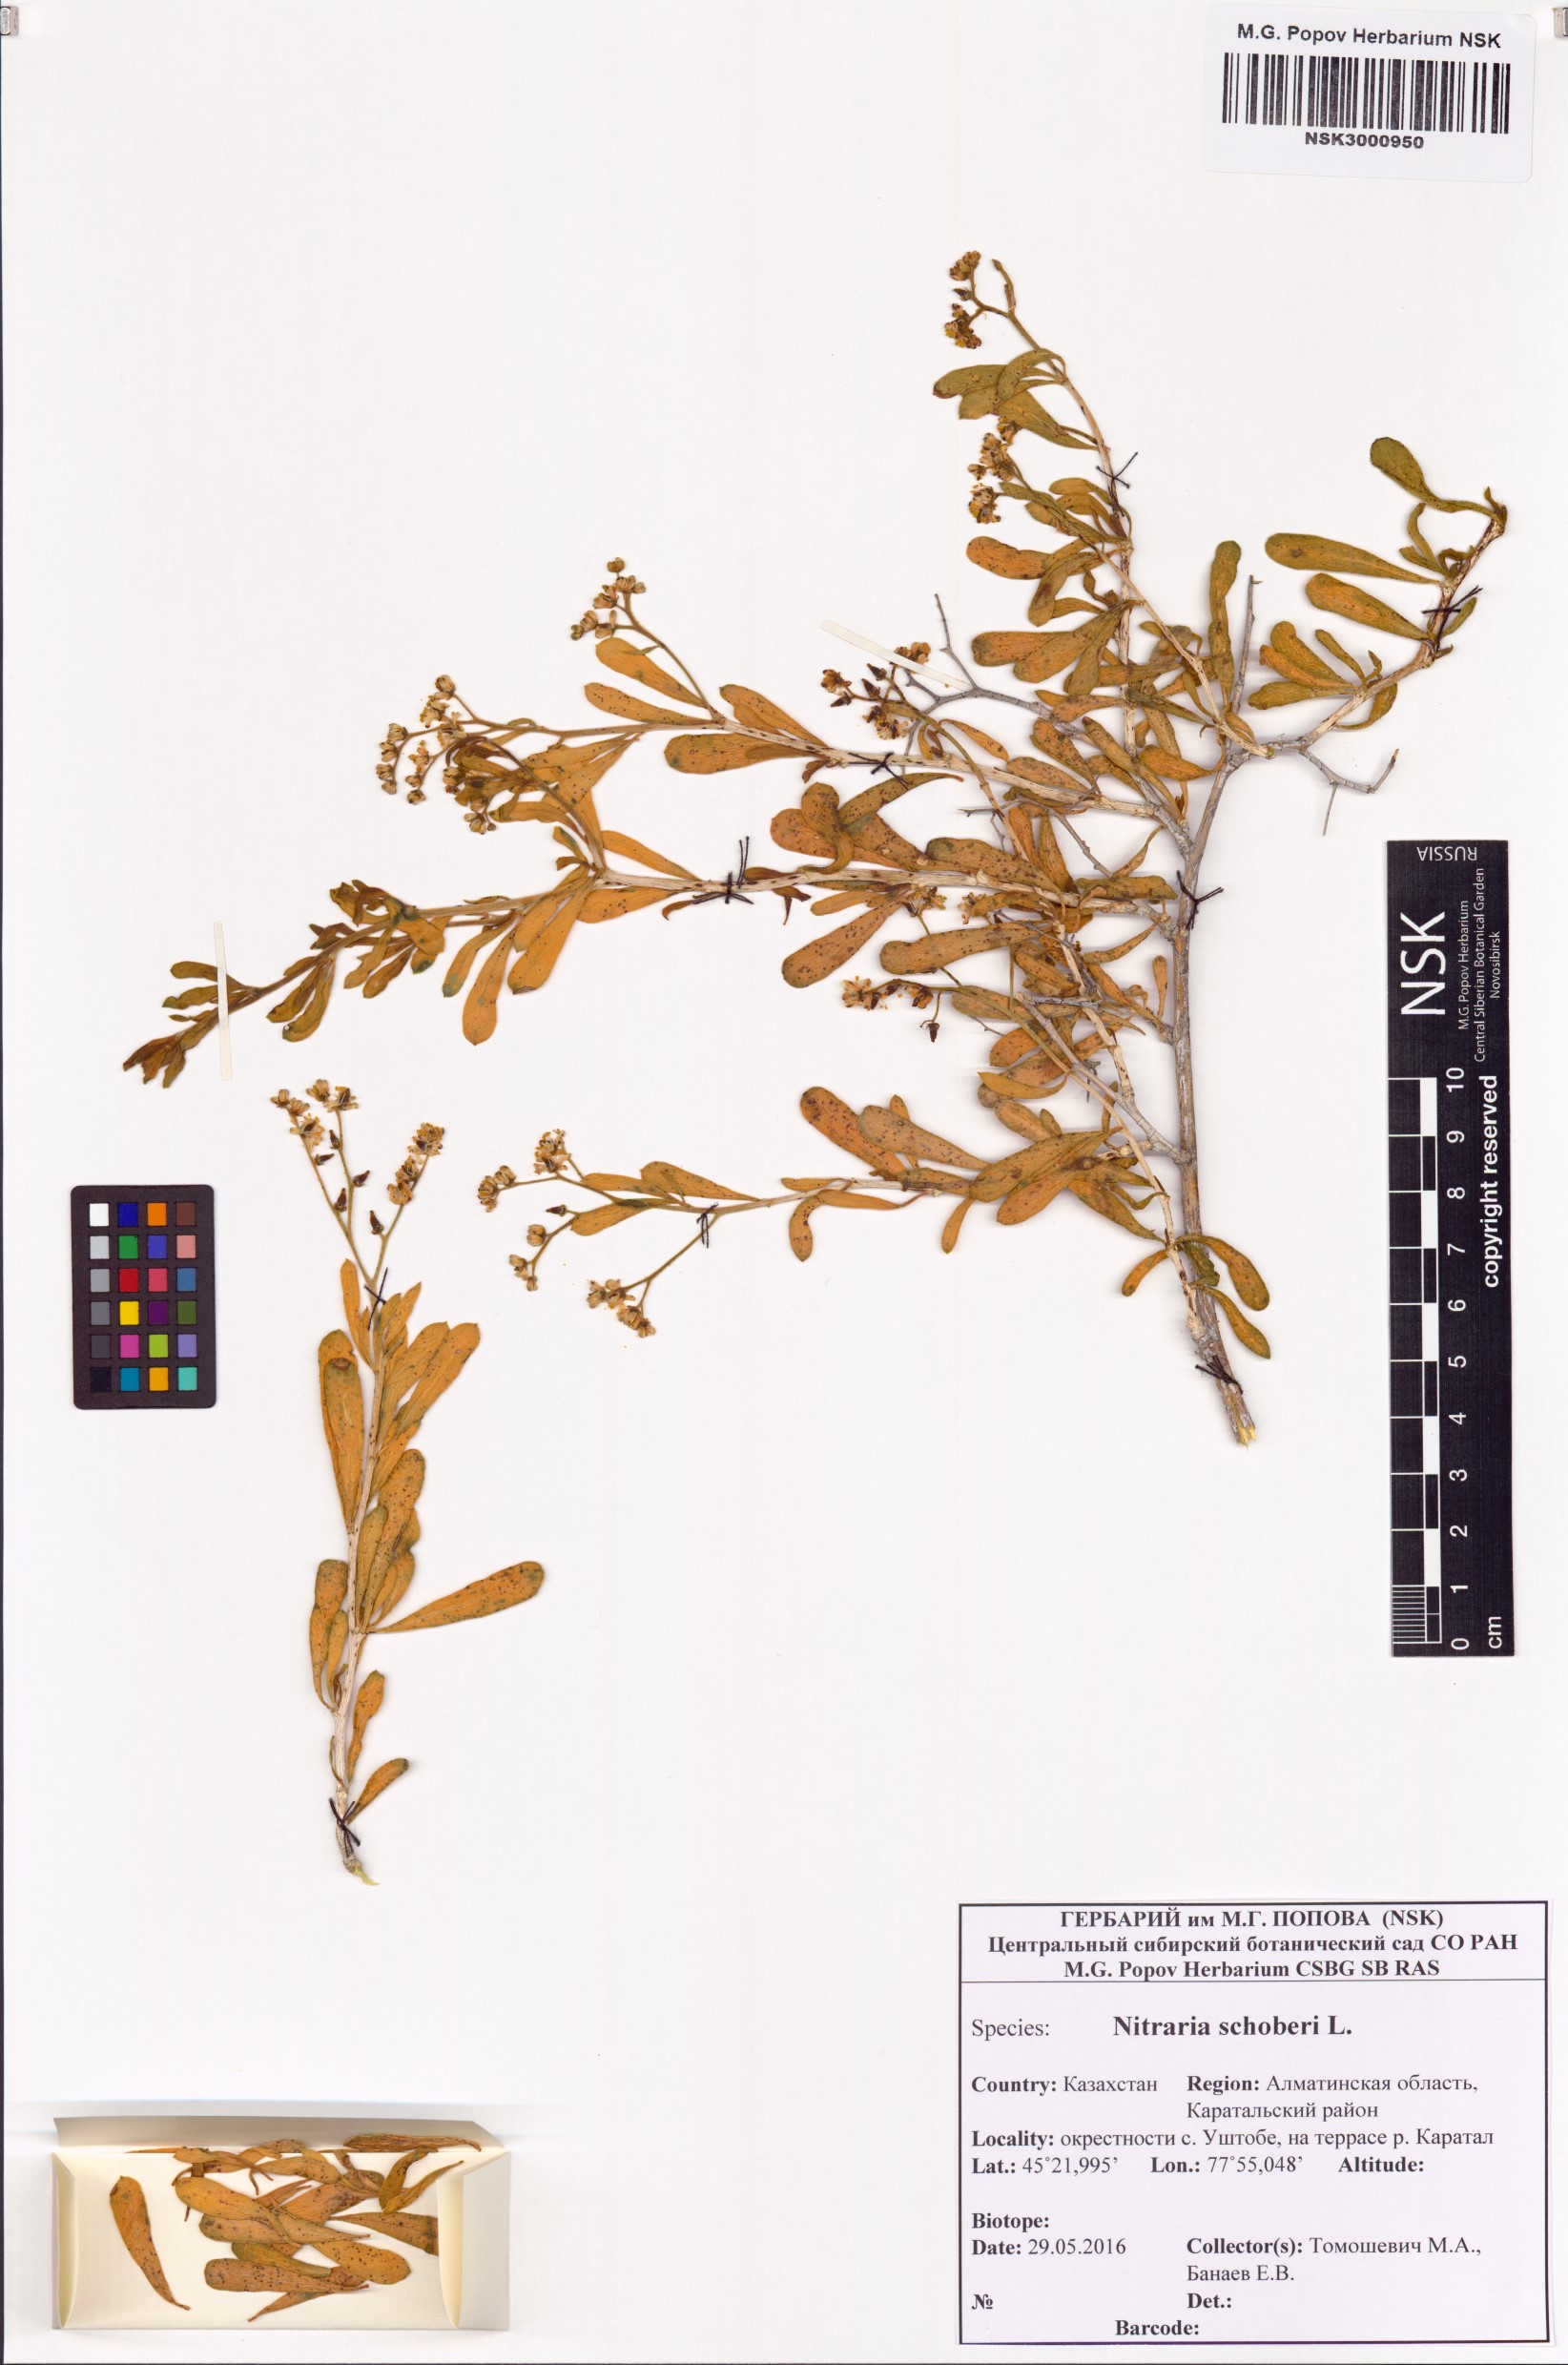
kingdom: Plantae
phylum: Tracheophyta
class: Magnoliopsida
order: Sapindales
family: Nitrariaceae
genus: Nitraria
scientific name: Nitraria schoberi
